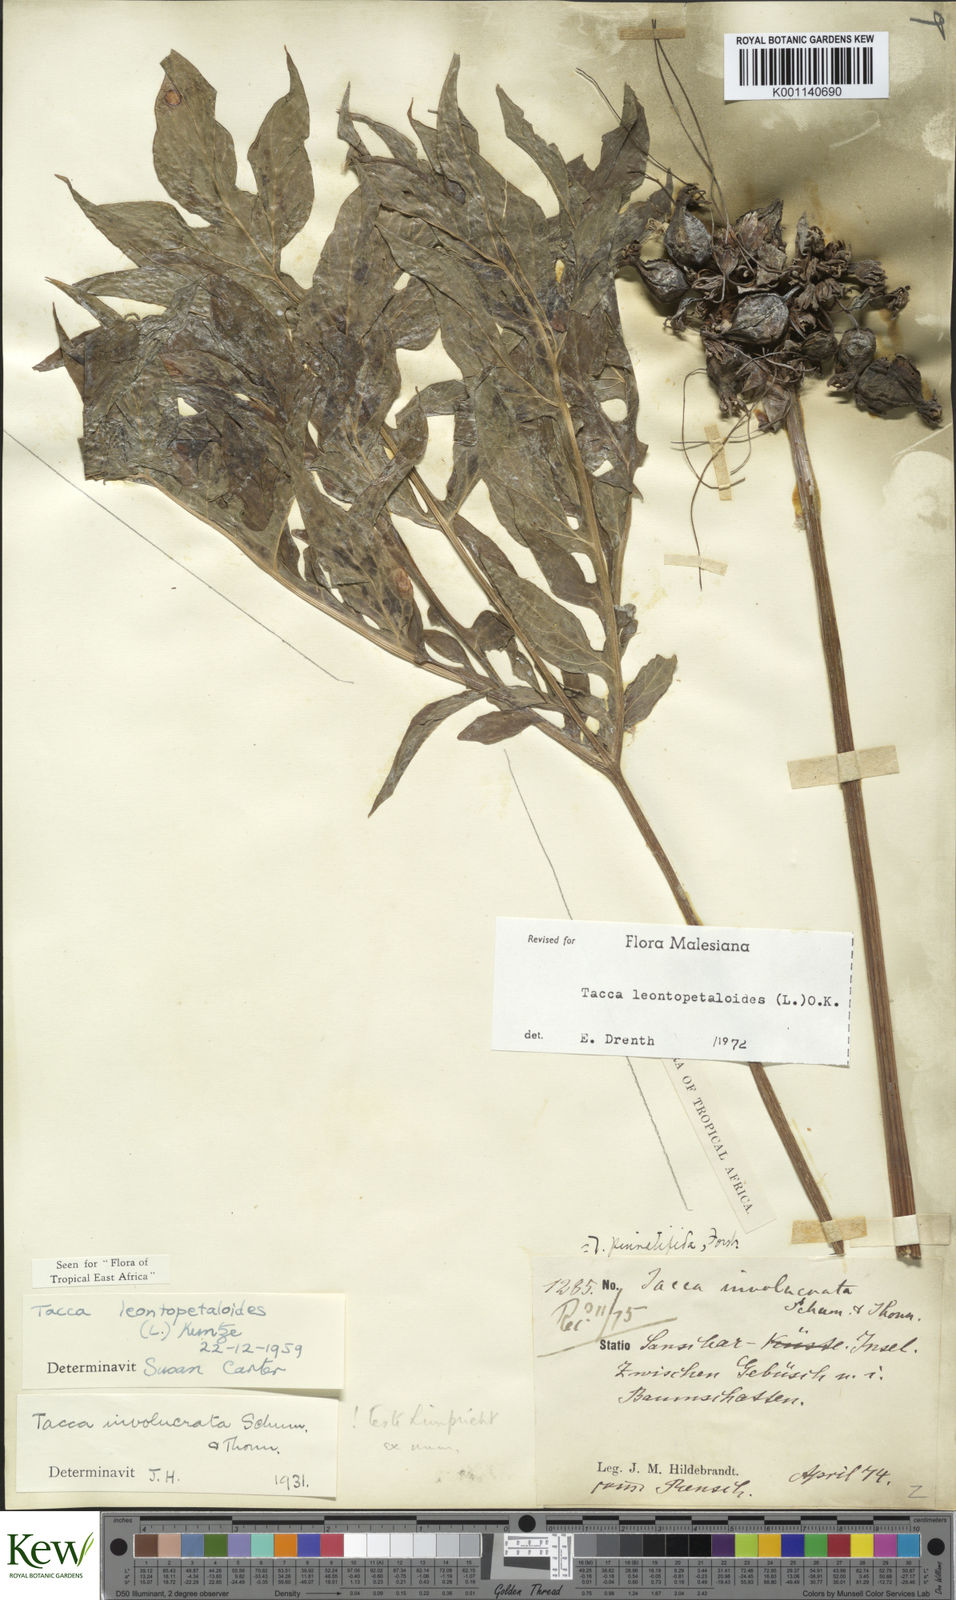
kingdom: Plantae
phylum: Tracheophyta
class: Liliopsida
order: Dioscoreales
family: Dioscoreaceae
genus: Tacca
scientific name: Tacca leontopetaloides
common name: Arrowroot
